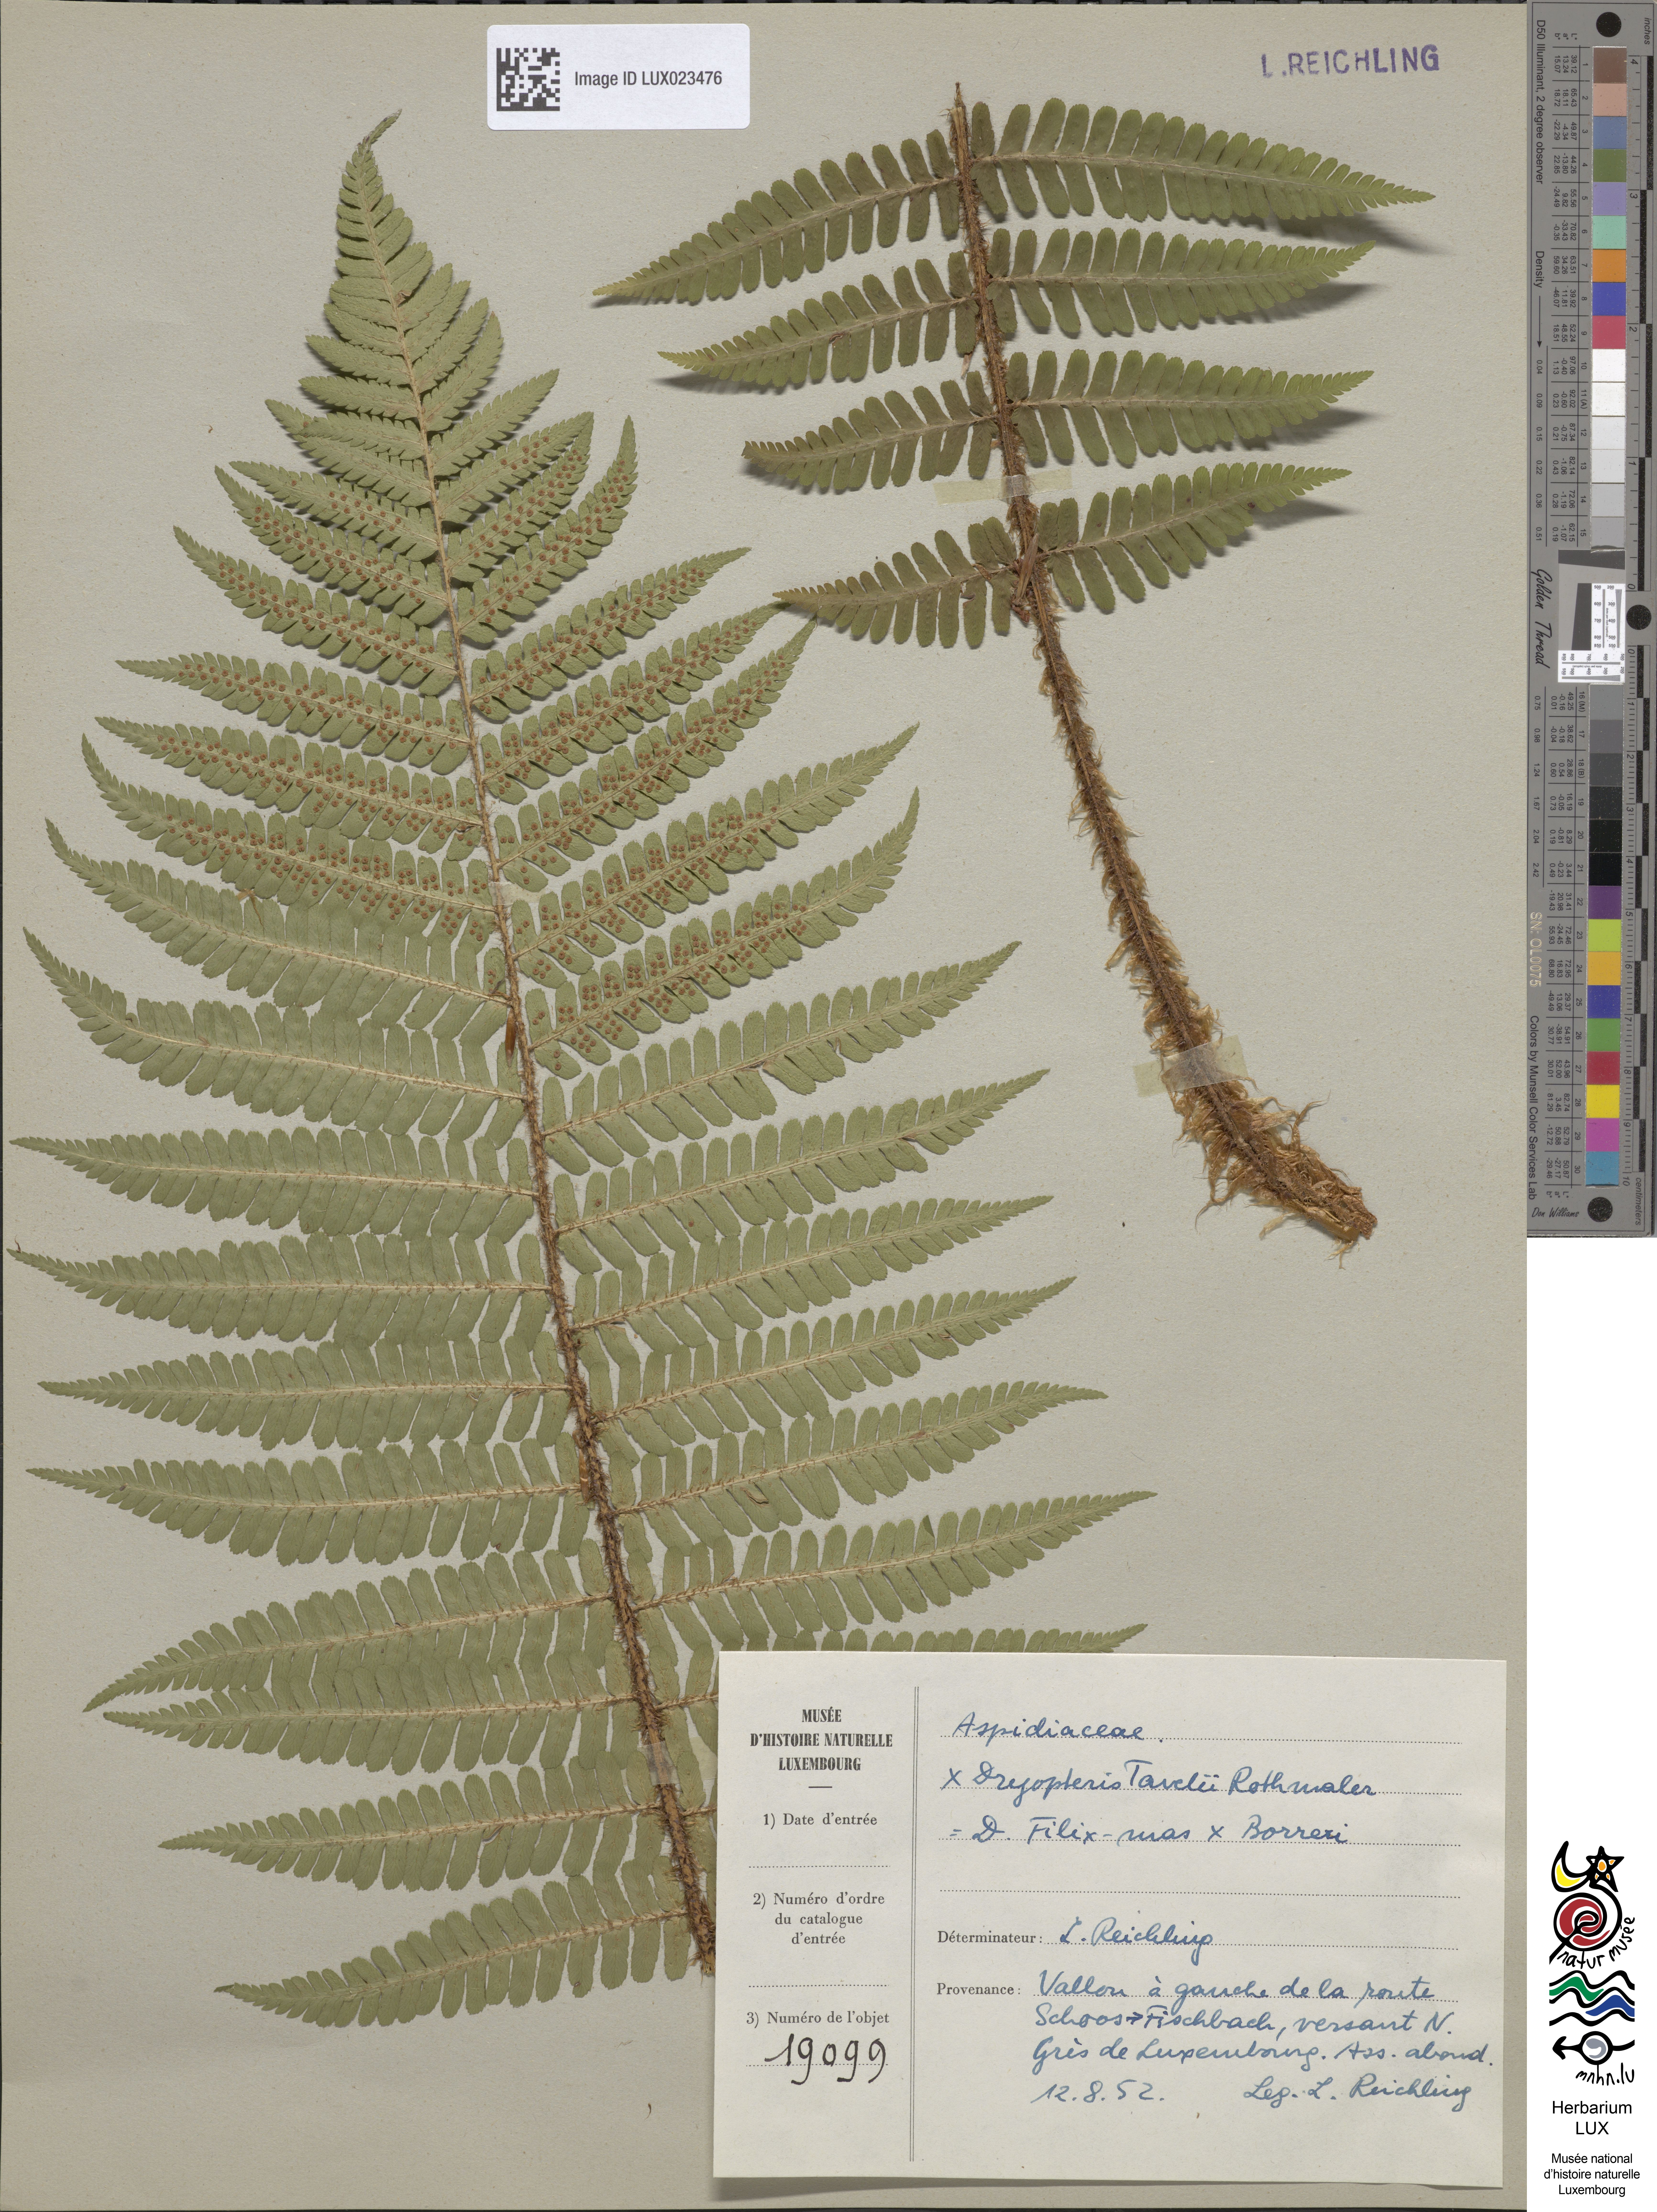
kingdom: Plantae
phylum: Tracheophyta
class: Polypodiopsida
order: Polypodiales
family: Dryopteridaceae
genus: Dryopteris
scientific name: Dryopteris borreri
